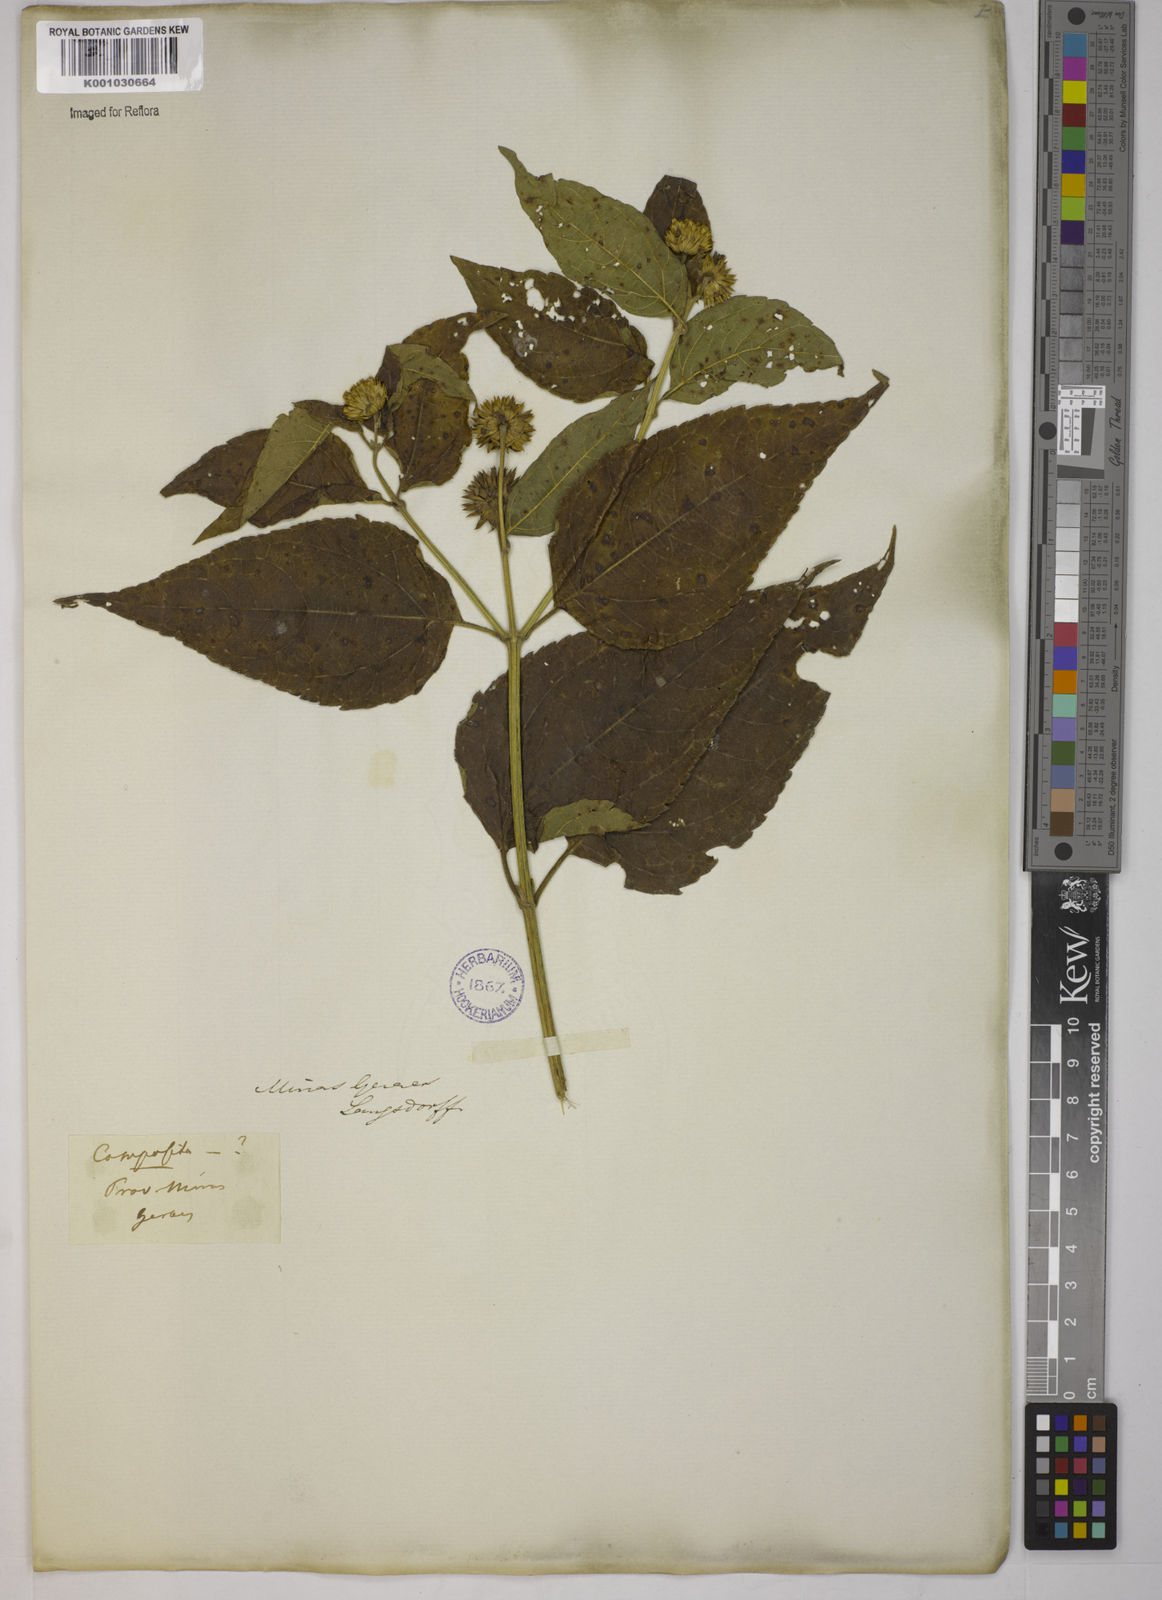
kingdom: Plantae
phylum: Tracheophyta
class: Magnoliopsida
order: Asterales
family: Asteraceae
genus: Tilesia
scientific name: Tilesia baccata
